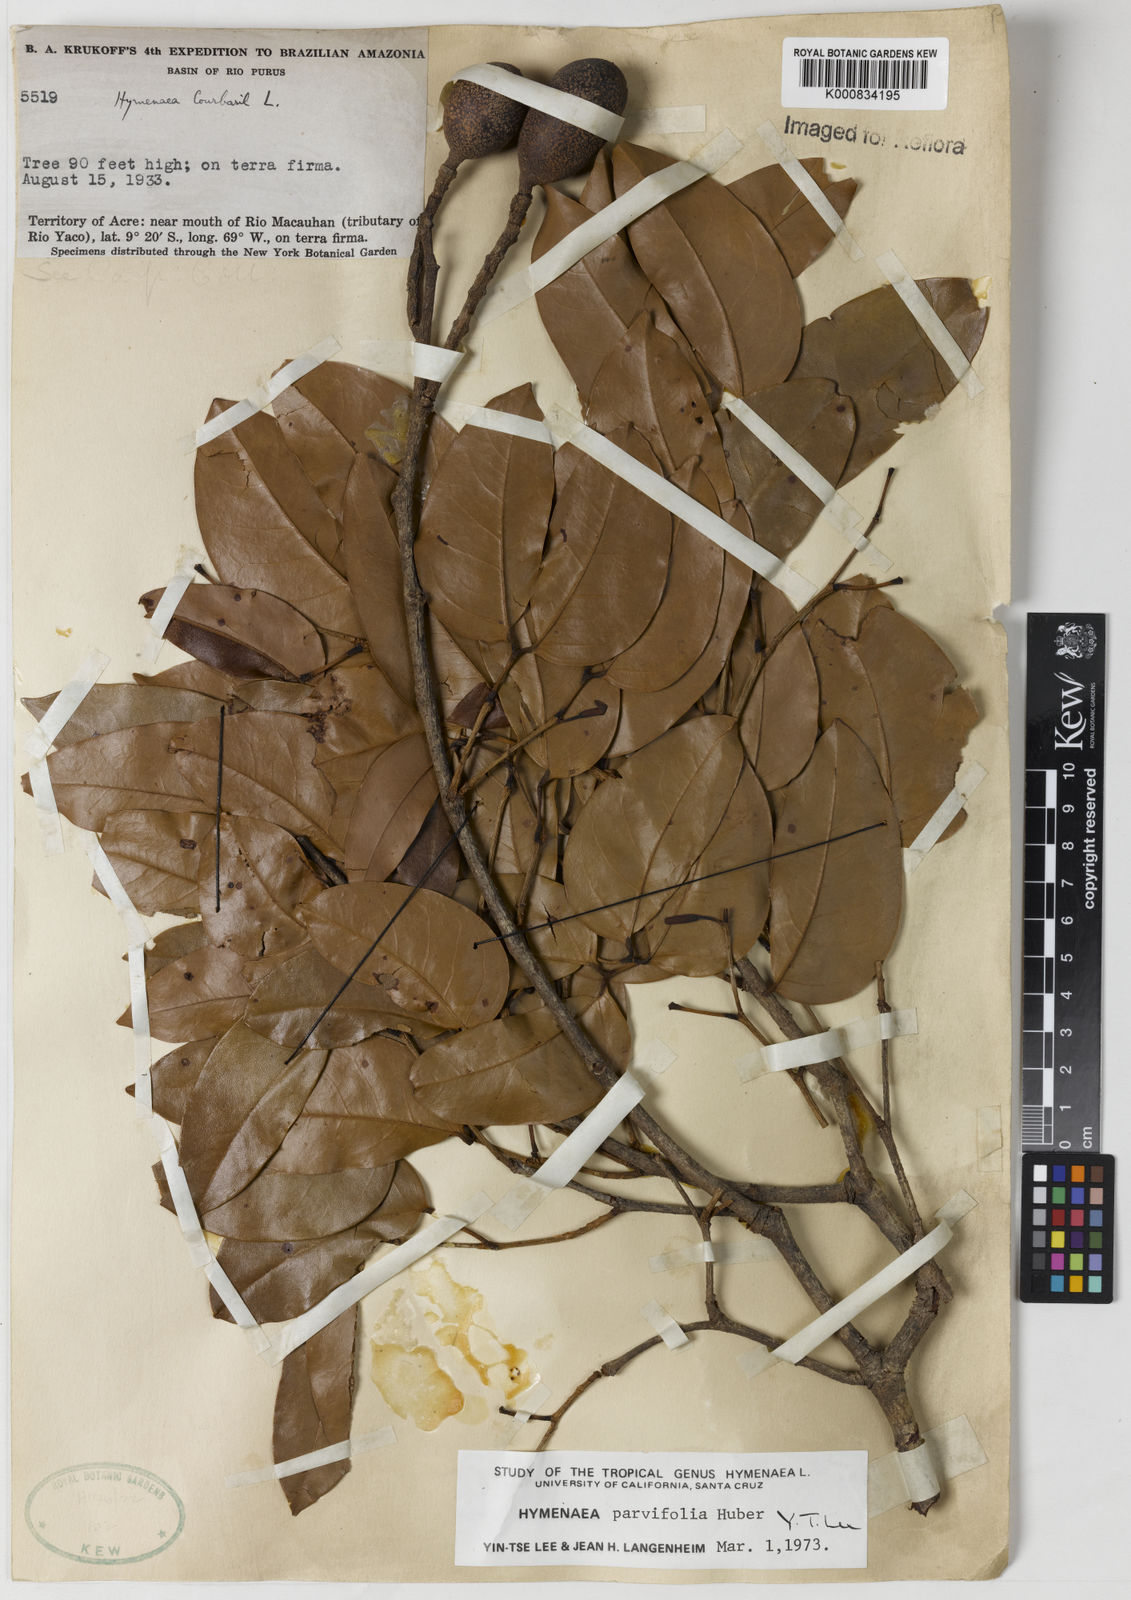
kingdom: Plantae
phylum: Tracheophyta
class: Magnoliopsida
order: Fabales
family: Fabaceae
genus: Hymenaea
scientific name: Hymenaea parvifolia
